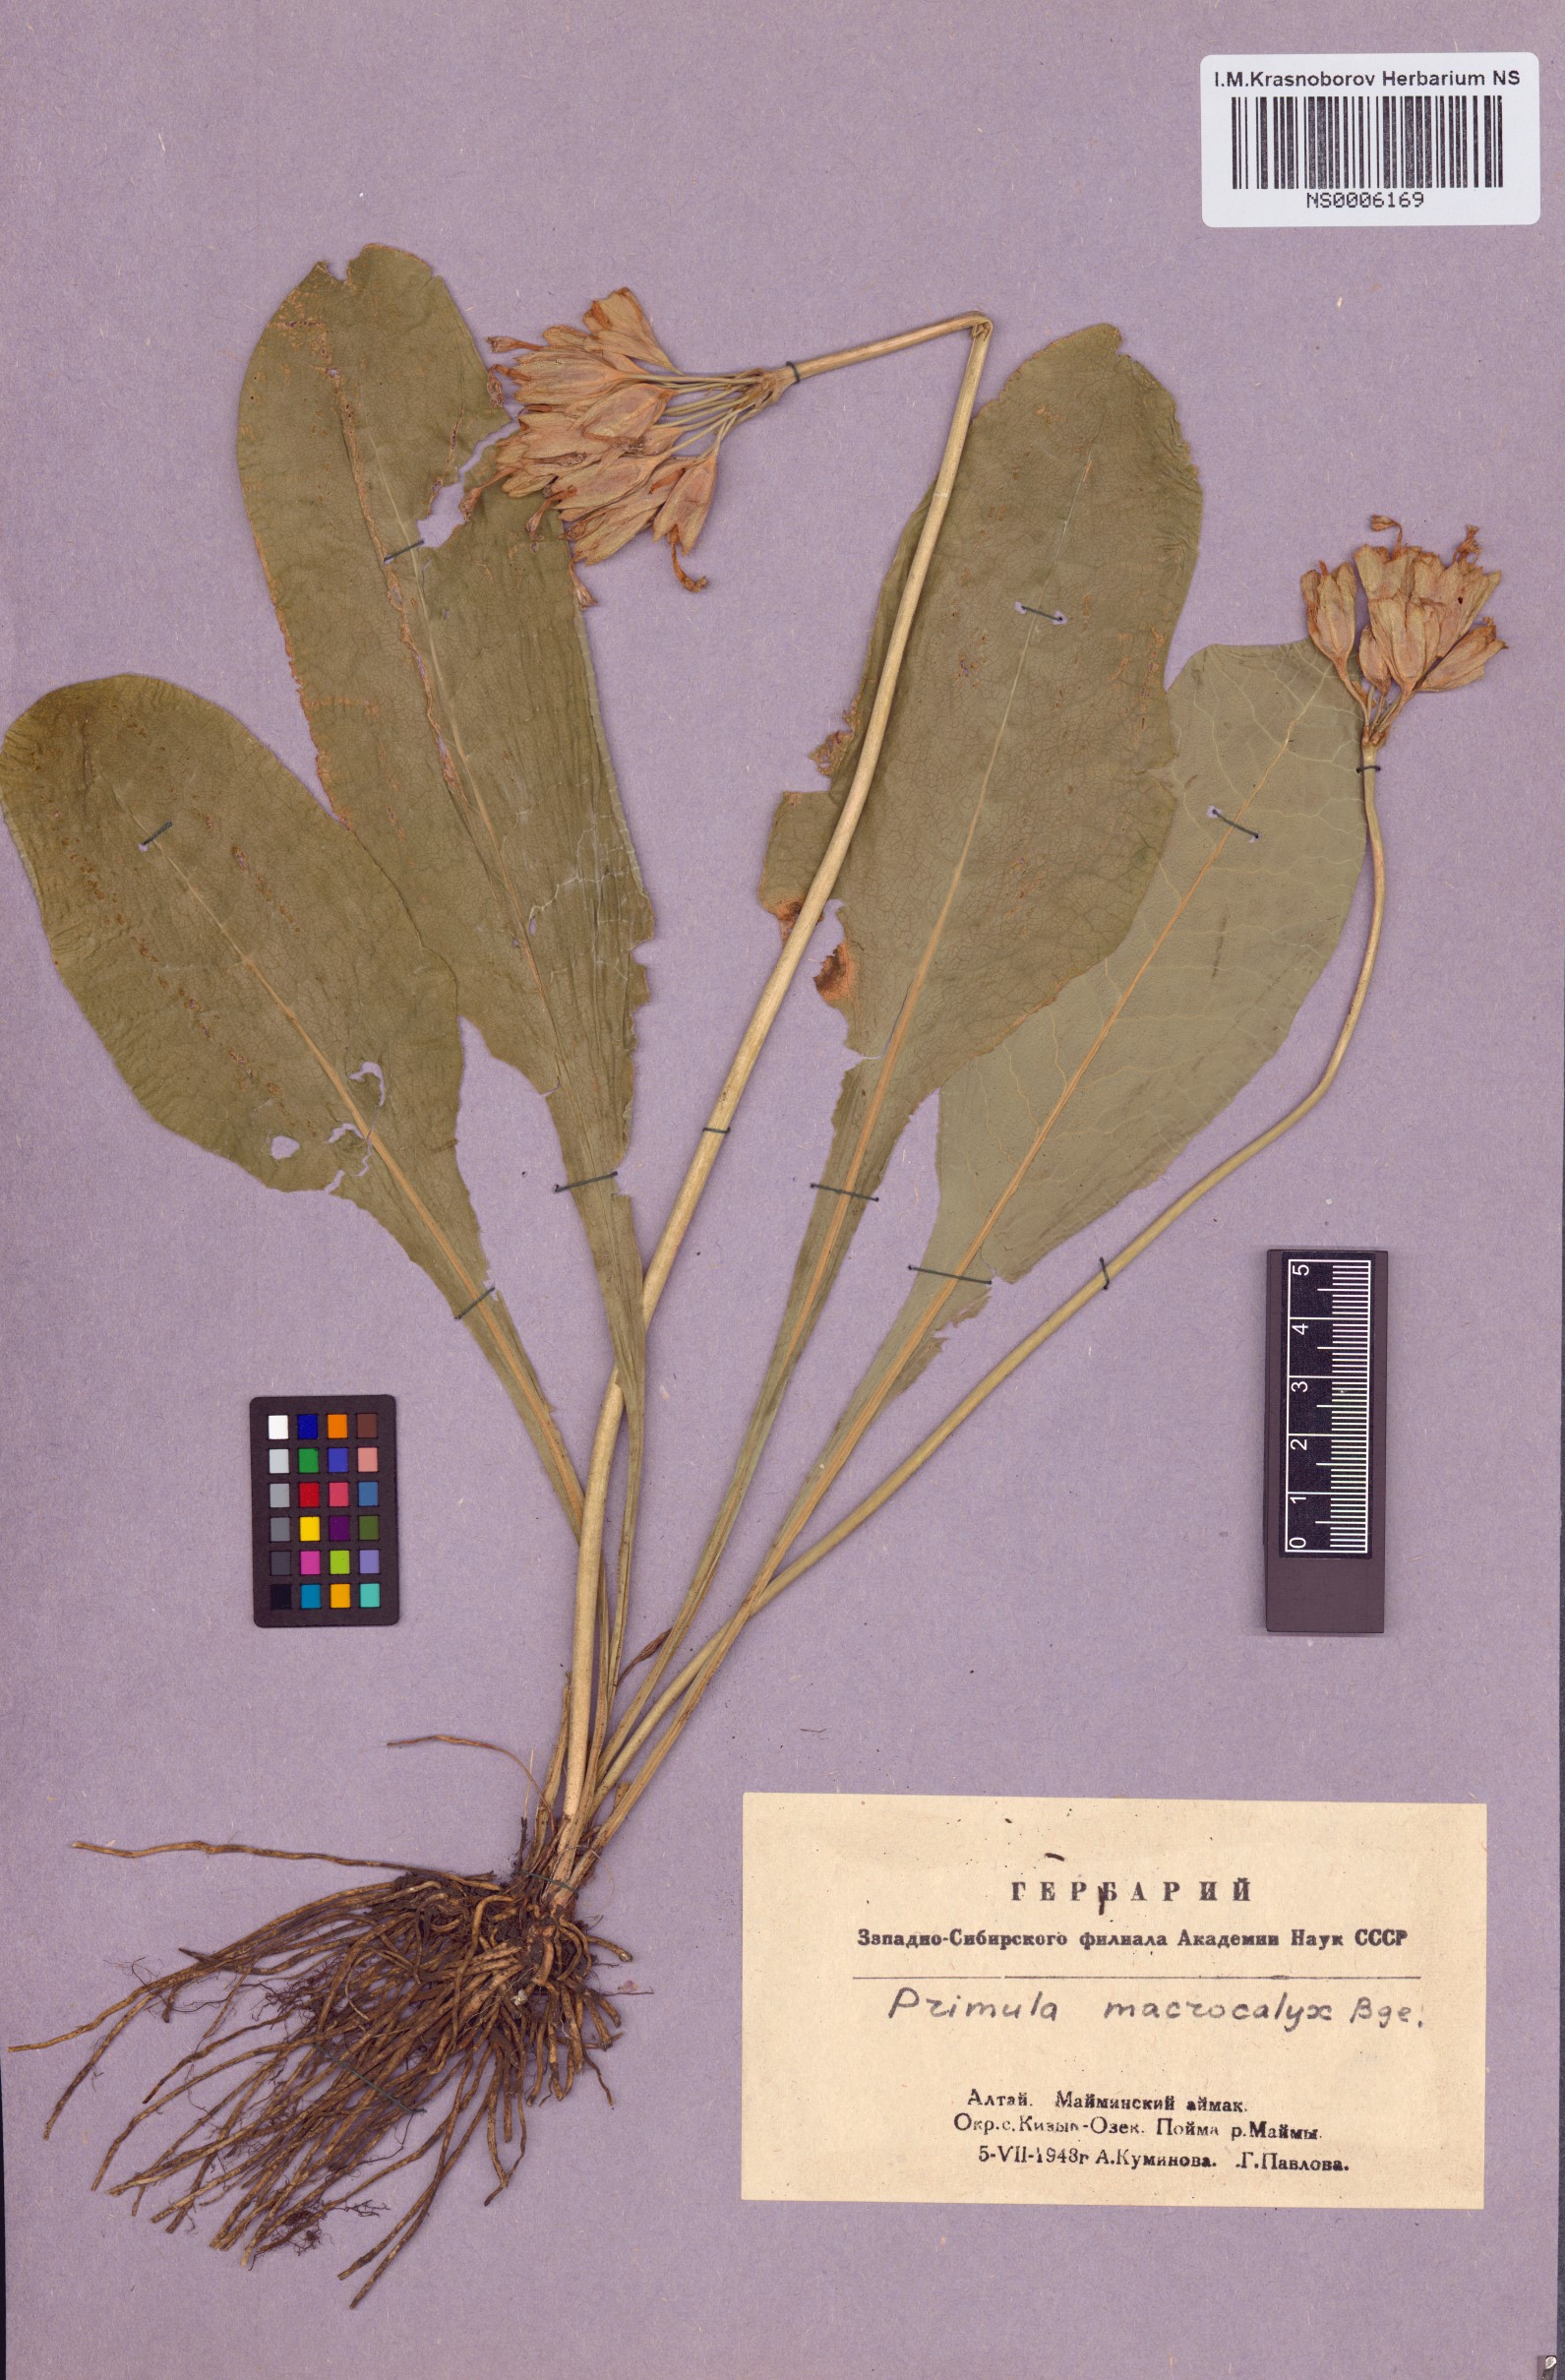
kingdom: Plantae
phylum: Tracheophyta
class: Magnoliopsida
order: Ericales
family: Primulaceae
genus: Primula
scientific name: Primula veris
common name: Cowslip
